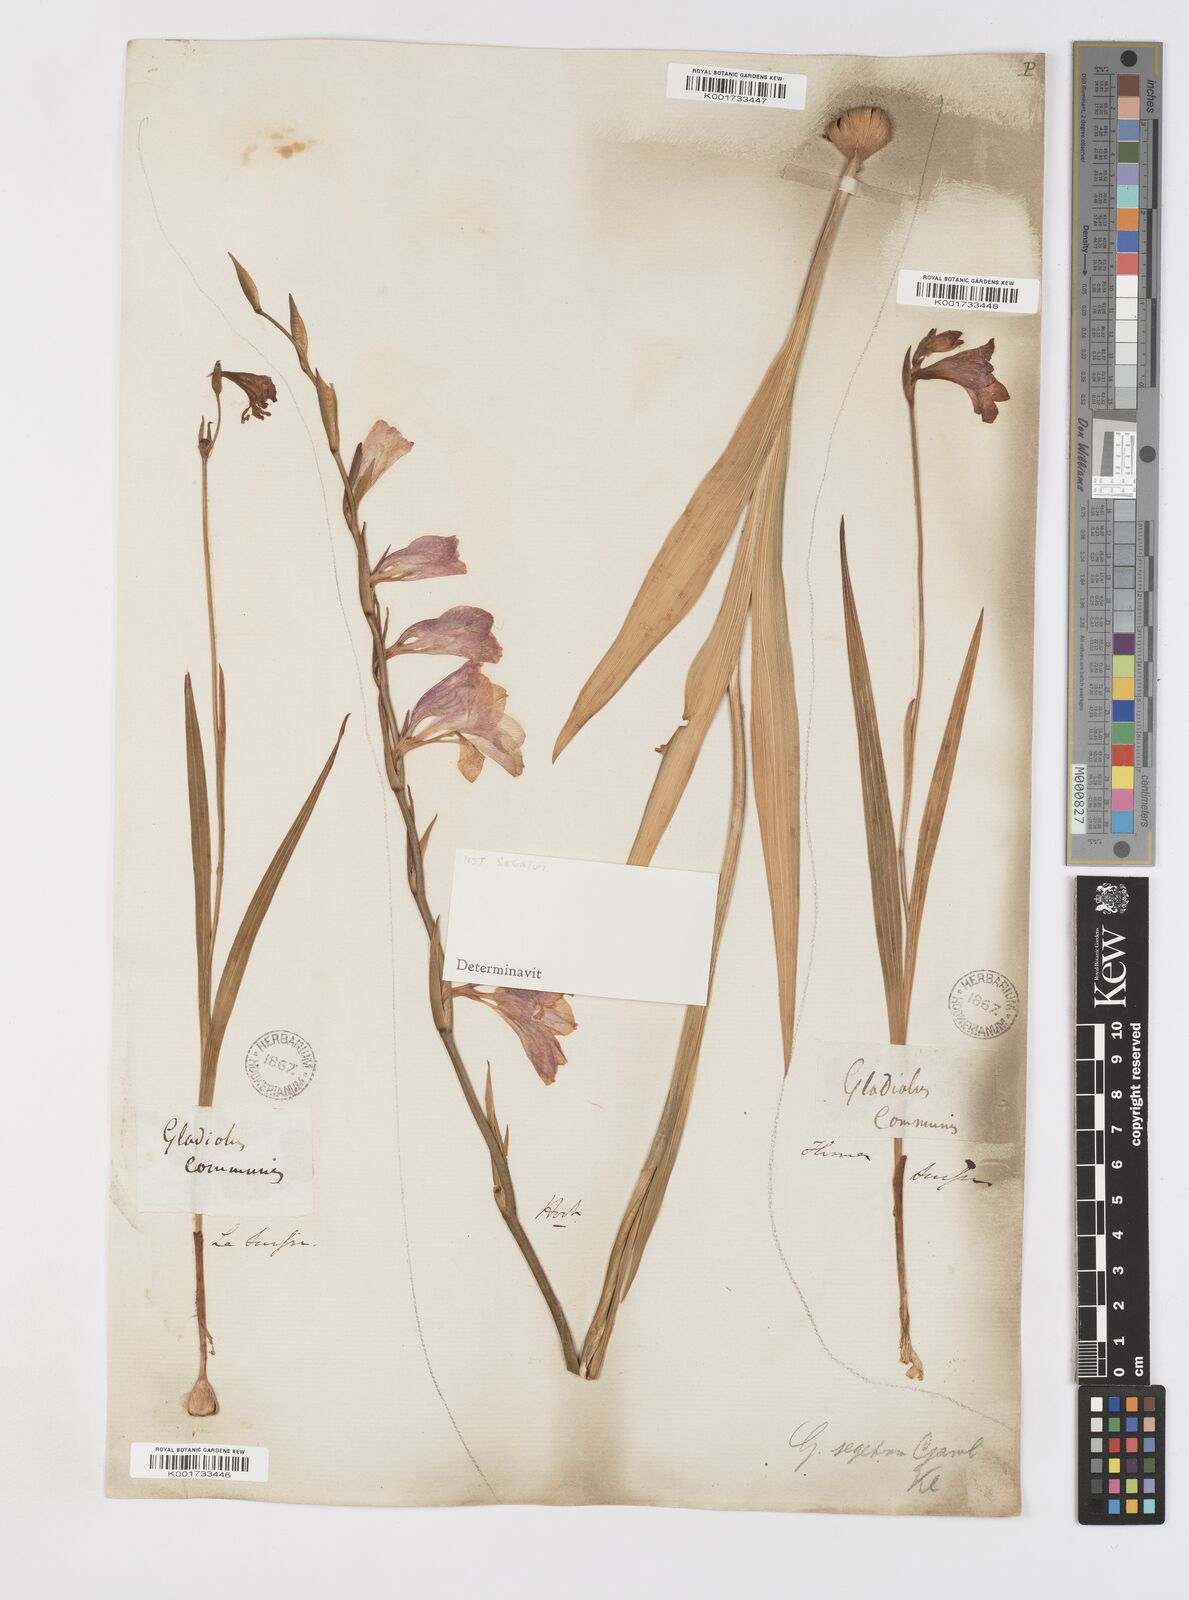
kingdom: Plantae
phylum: Tracheophyta
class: Liliopsida
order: Asparagales
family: Iridaceae
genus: Gladiolus
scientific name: Gladiolus italicus
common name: Field gladiolus
